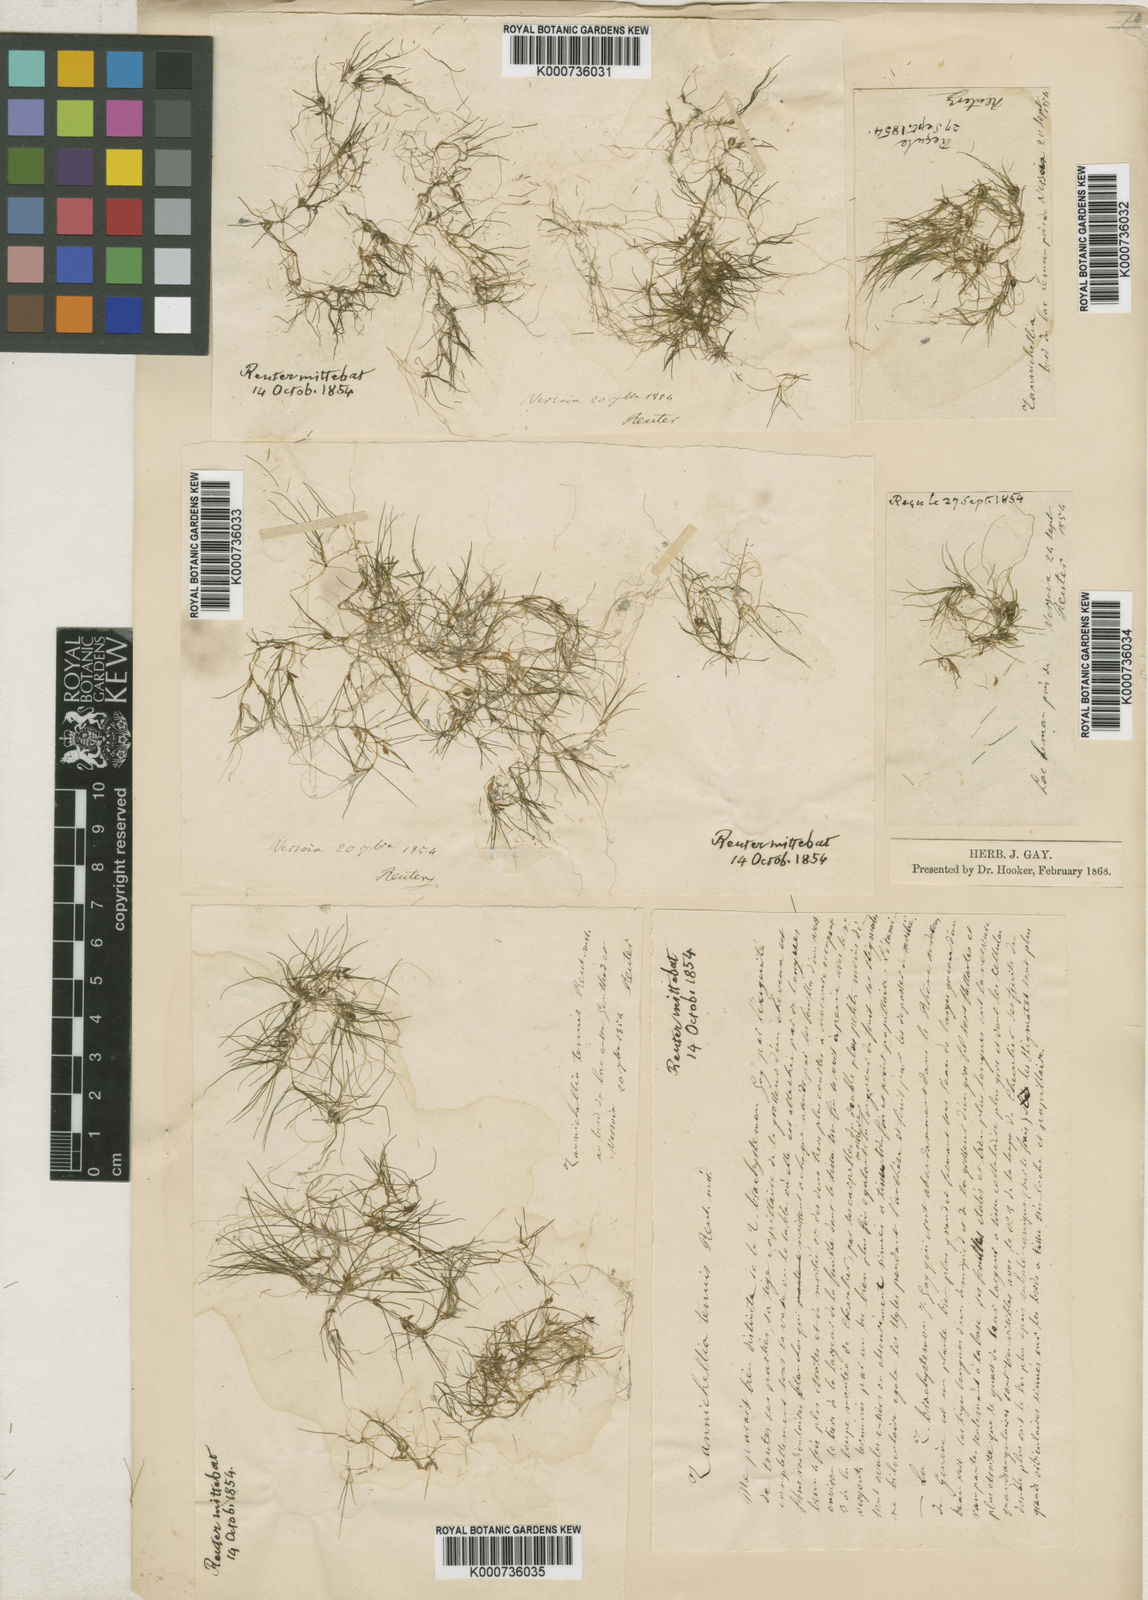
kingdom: Plantae
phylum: Tracheophyta
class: Liliopsida
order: Alismatales
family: Potamogetonaceae
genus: Zannichellia
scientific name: Zannichellia palustris
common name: Horned pondweed
